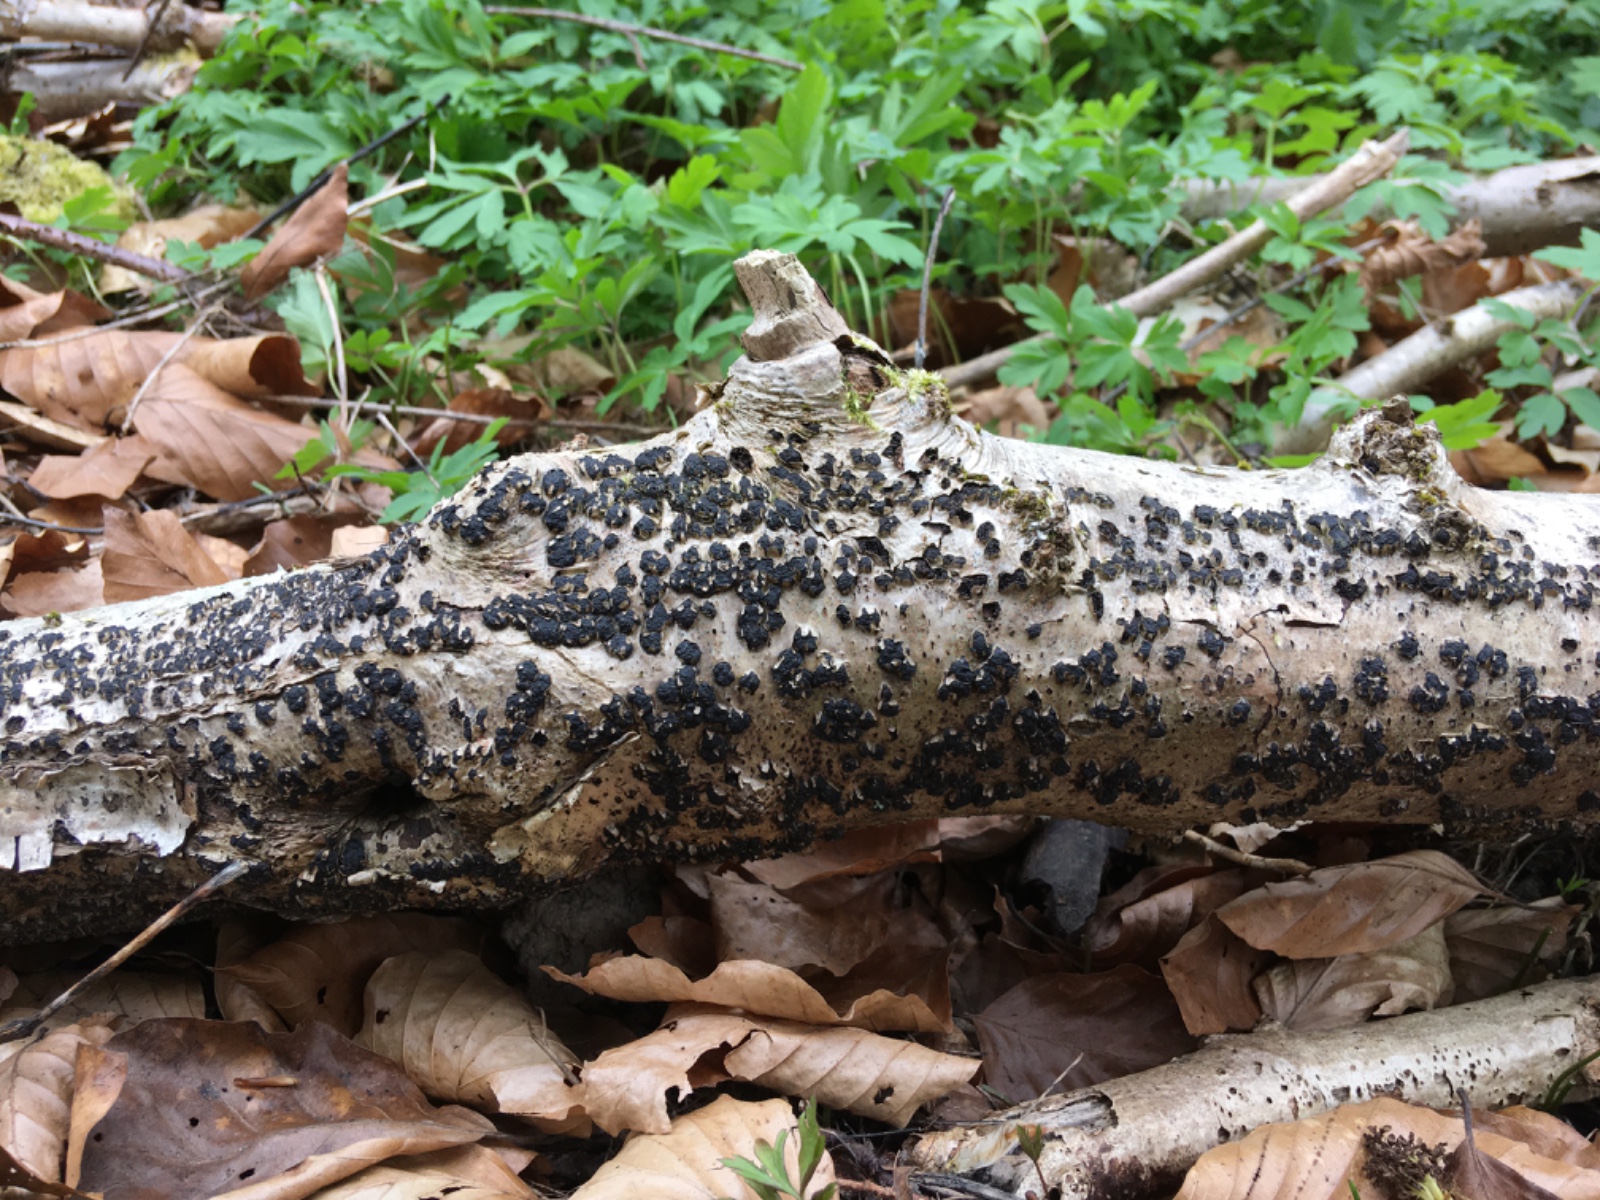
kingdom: Fungi
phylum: Ascomycota
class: Sordariomycetes
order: Xylariales
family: Diatrypaceae
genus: Diatrypella
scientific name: Diatrypella favacea
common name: klemt kulskorpe
